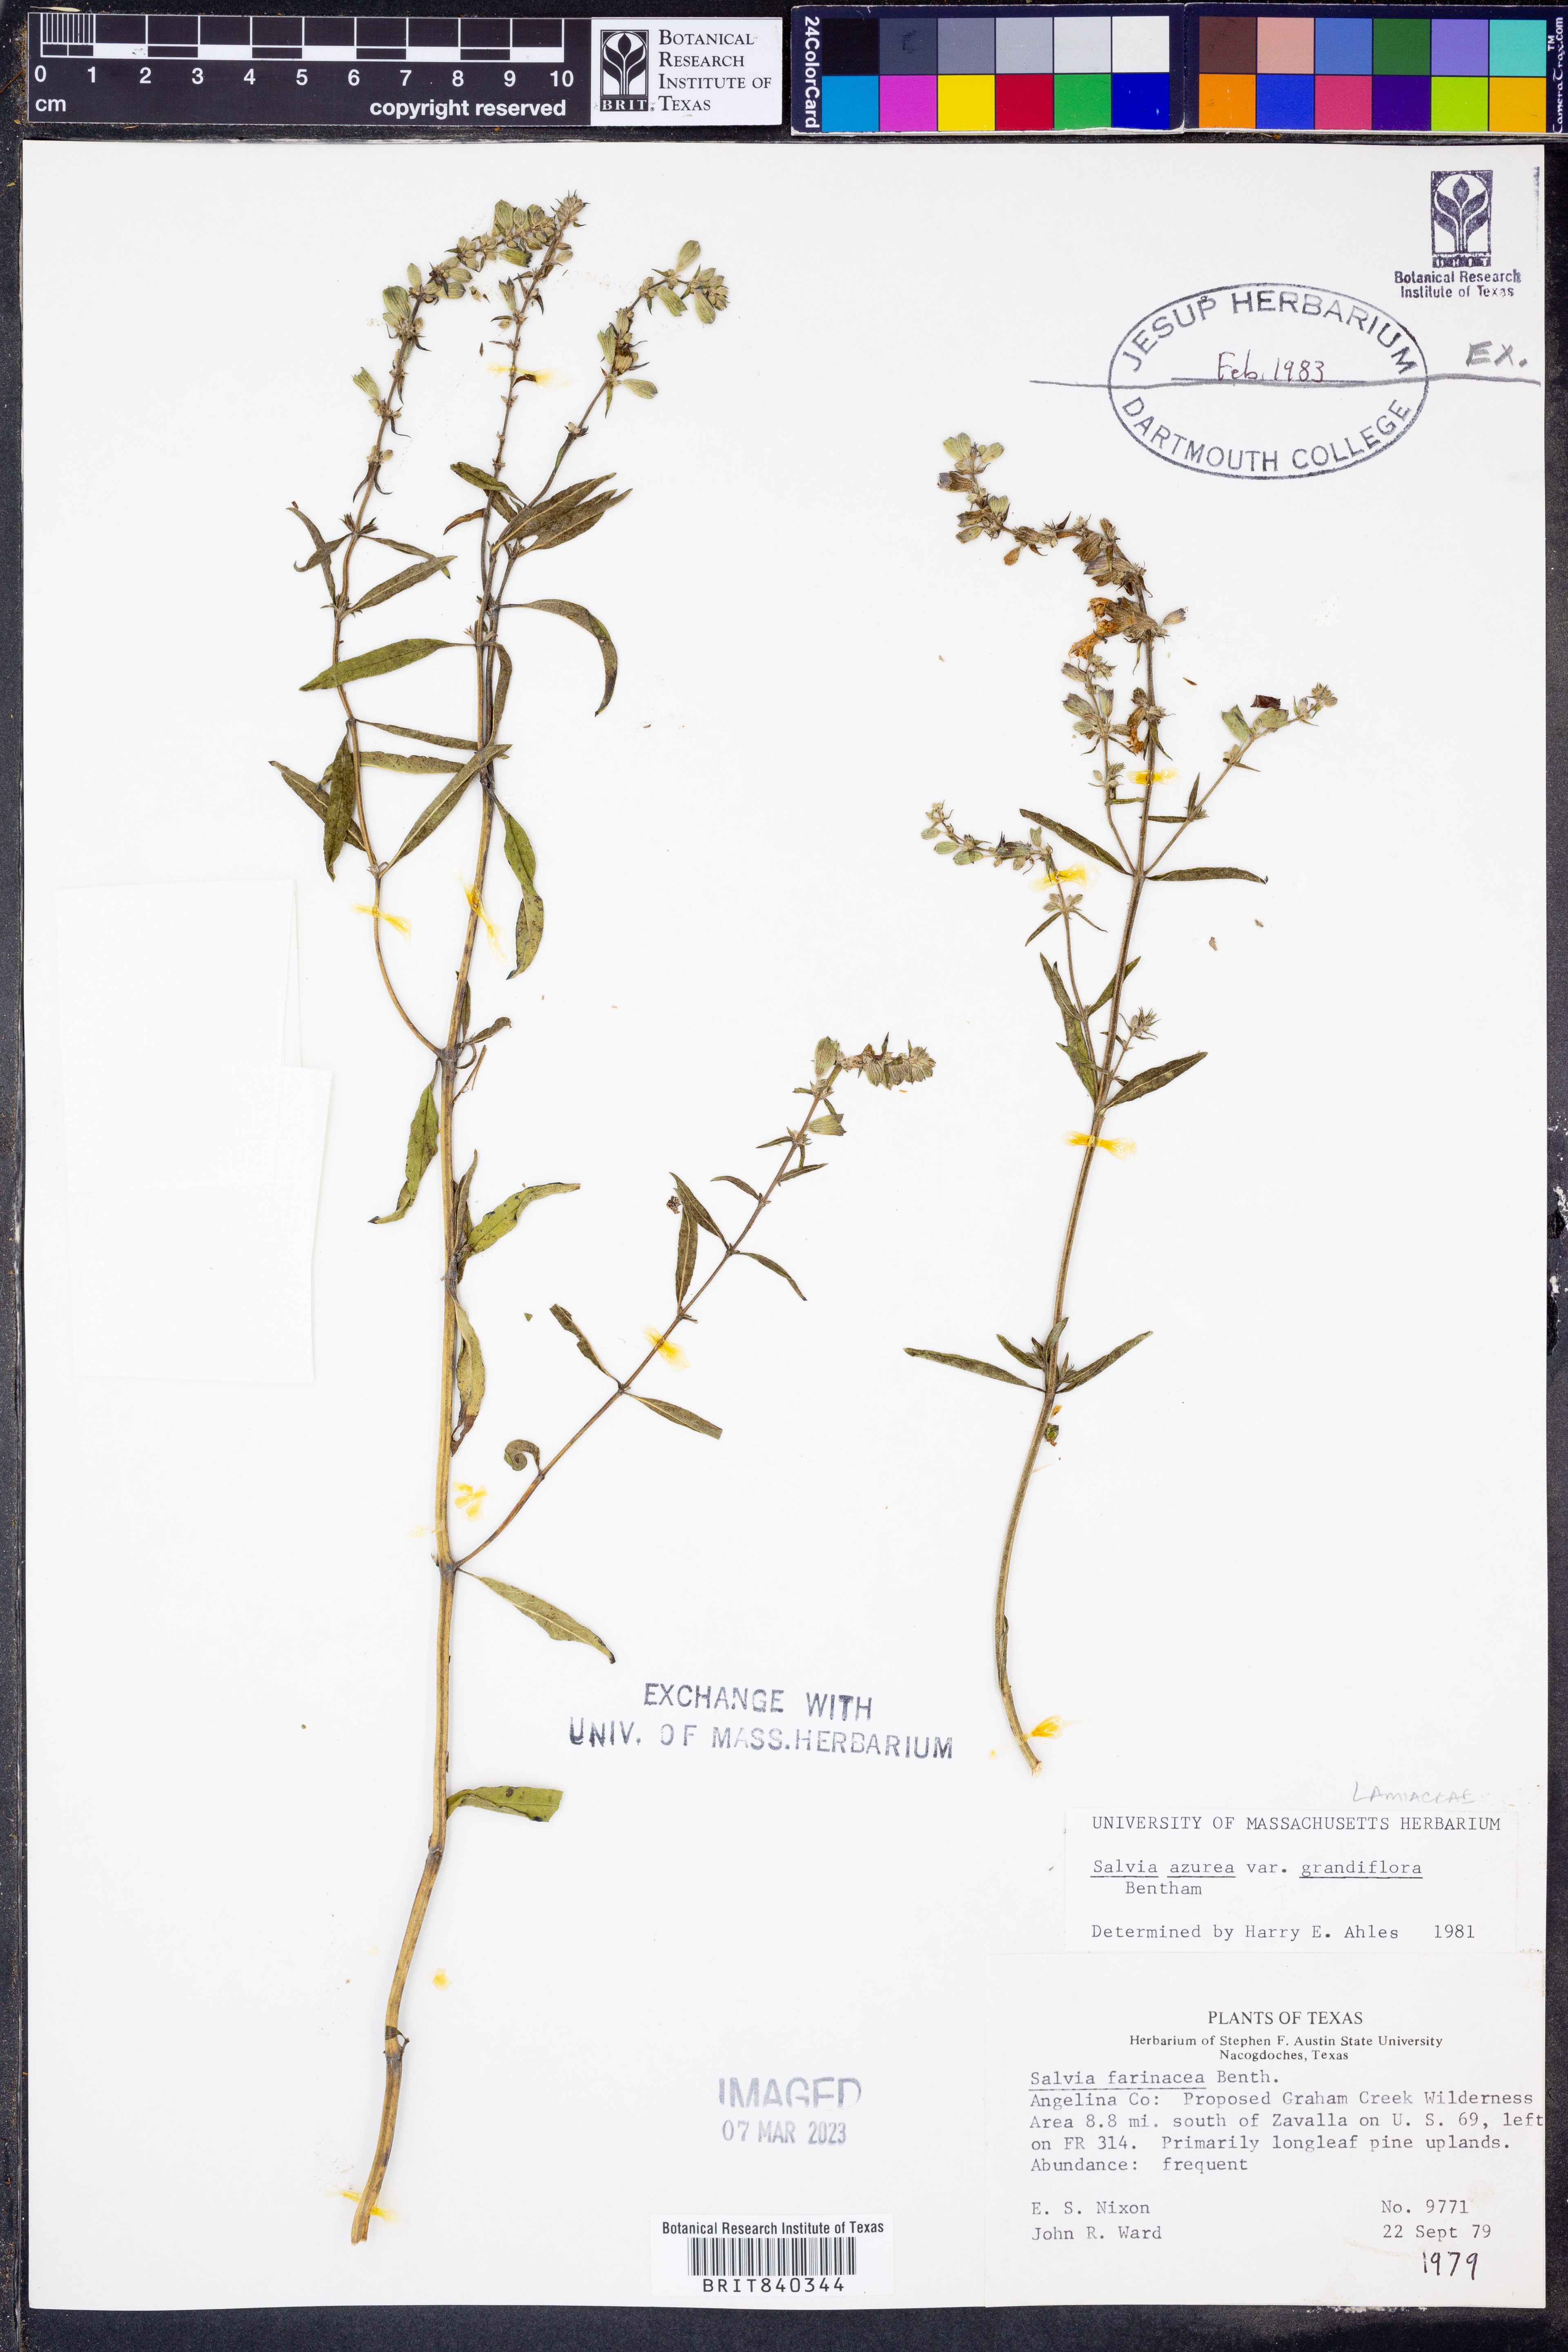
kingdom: Plantae
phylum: Tracheophyta
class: Magnoliopsida
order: Lamiales
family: Lamiaceae
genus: Salvia
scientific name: Salvia azurea
